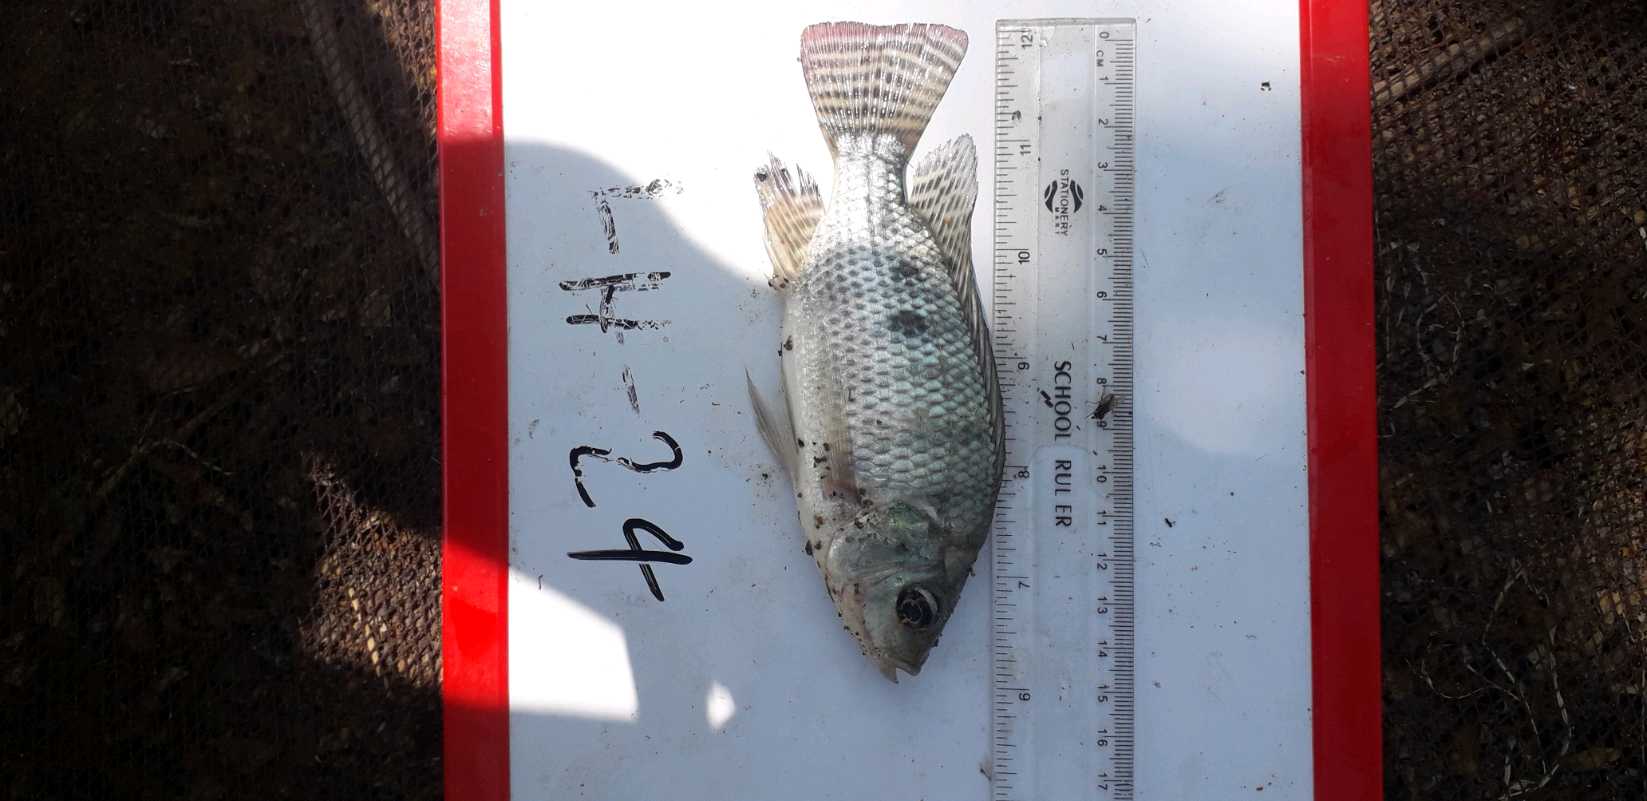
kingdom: Animalia
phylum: Chordata
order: Perciformes
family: Cichlidae
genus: Oreochromis
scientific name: Oreochromis
